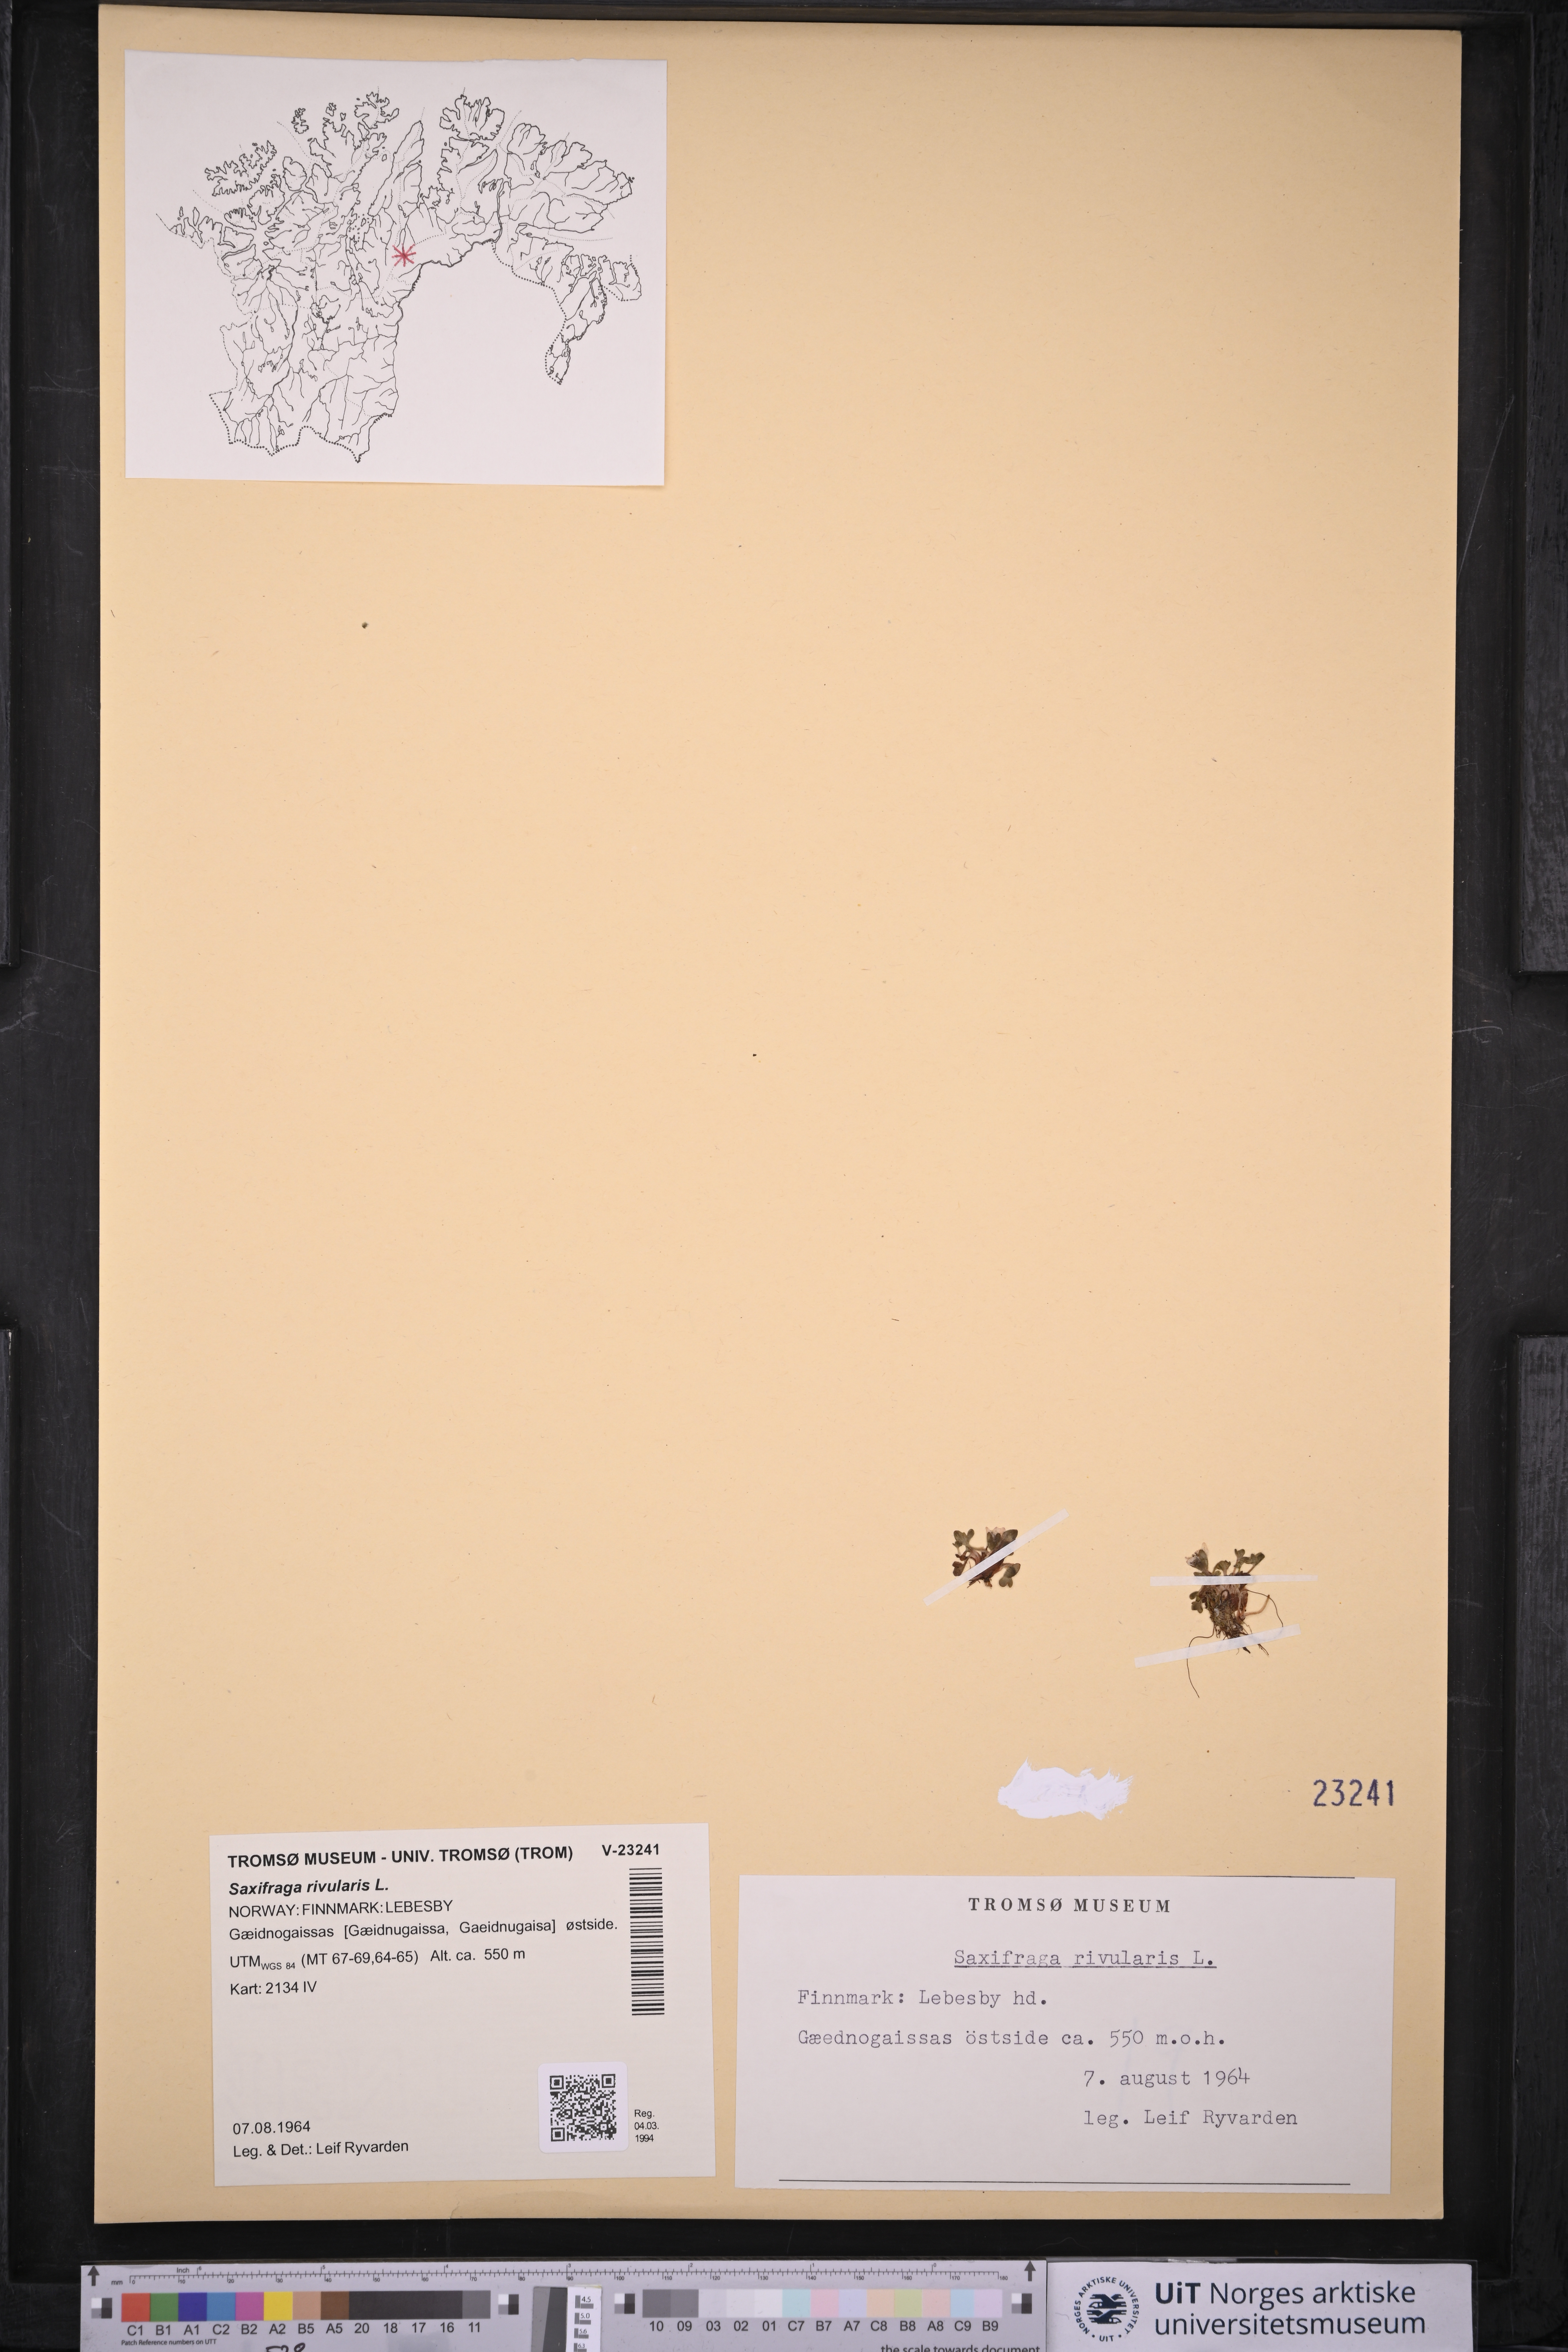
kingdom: Plantae
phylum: Tracheophyta
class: Magnoliopsida
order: Saxifragales
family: Saxifragaceae
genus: Saxifraga
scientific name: Saxifraga rivularis
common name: Highland saxifrage
